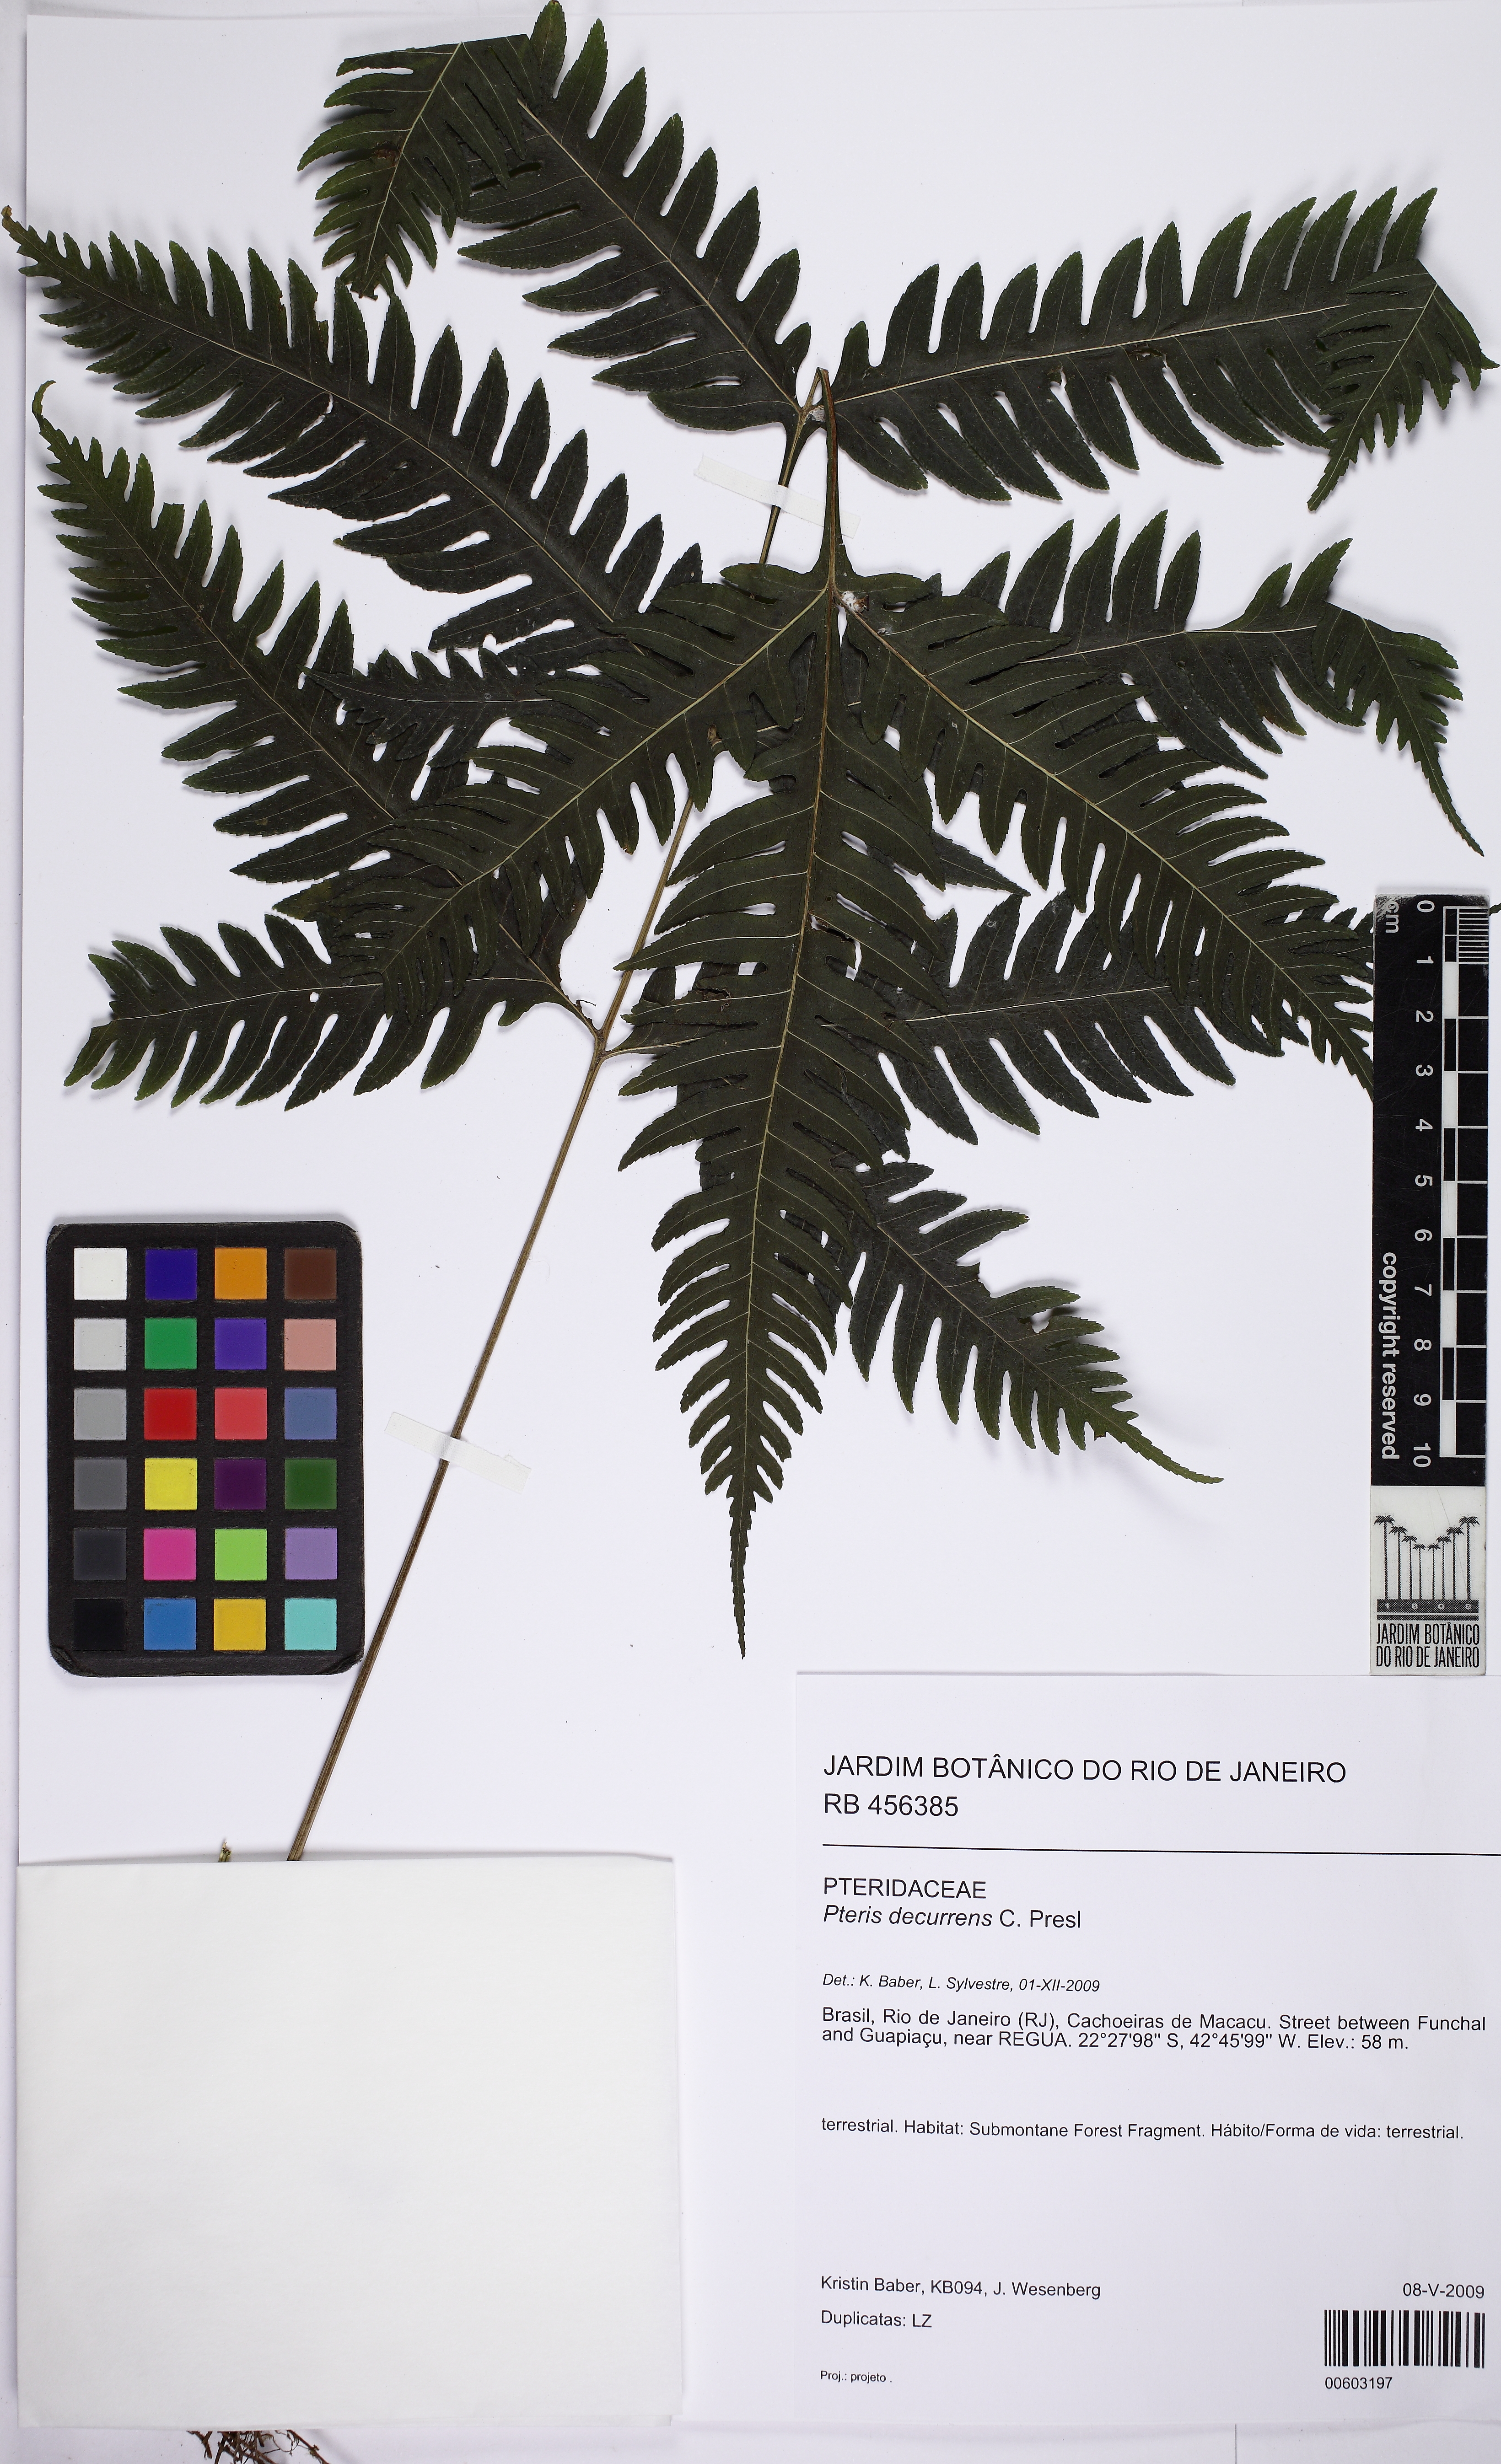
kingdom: Plantae
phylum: Tracheophyta
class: Polypodiopsida
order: Polypodiales
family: Pteridaceae
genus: Pteris
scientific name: Pteris decurrens
